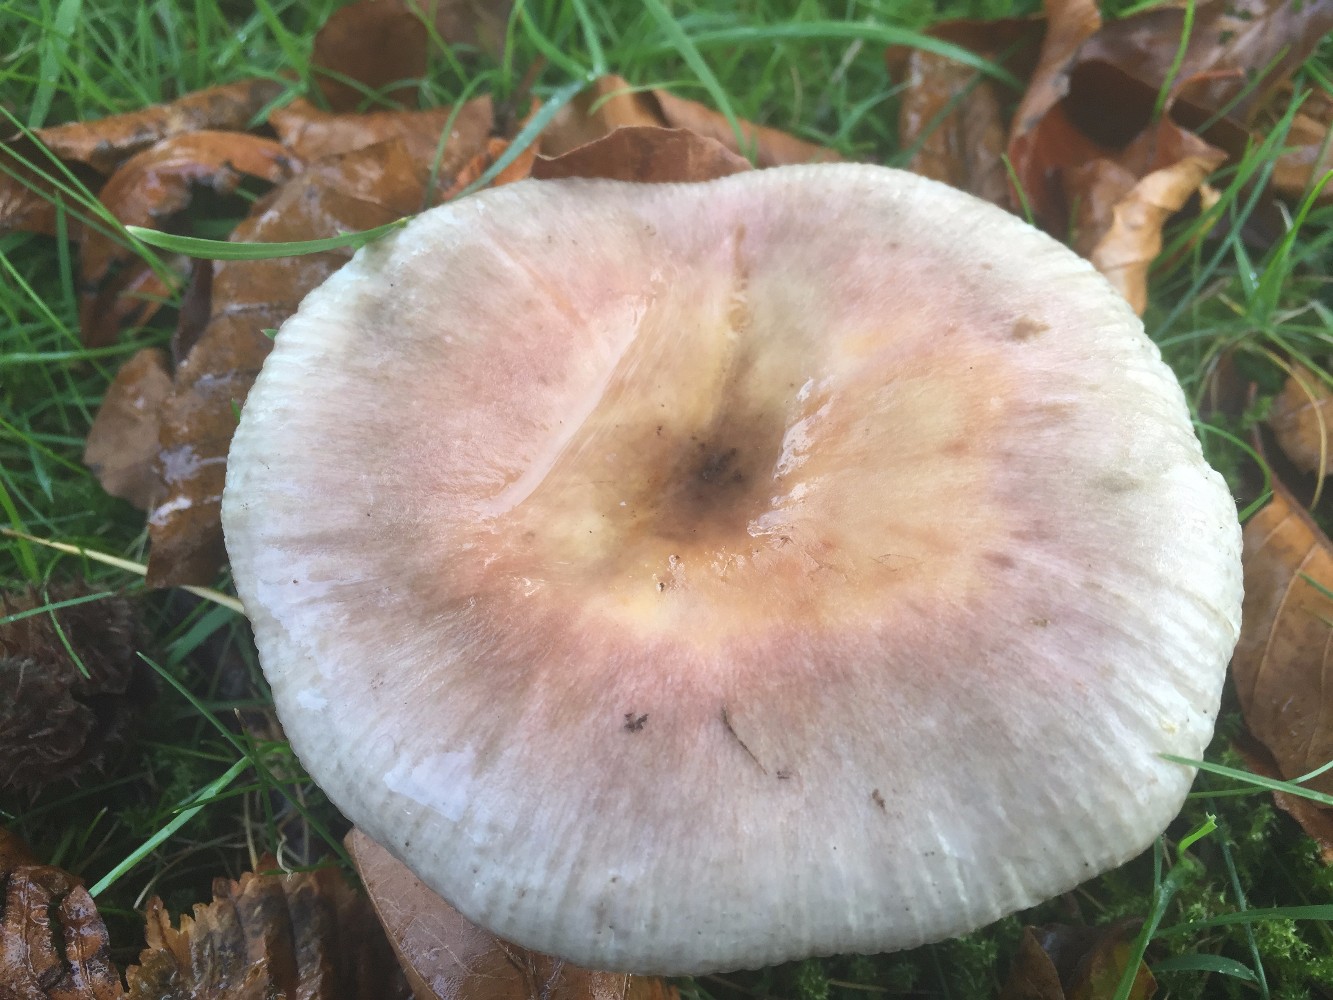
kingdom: Fungi
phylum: Basidiomycota
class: Agaricomycetes
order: Russulales
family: Russulaceae
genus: Russula
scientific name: Russula ionochlora
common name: violetgrøn skørhat
